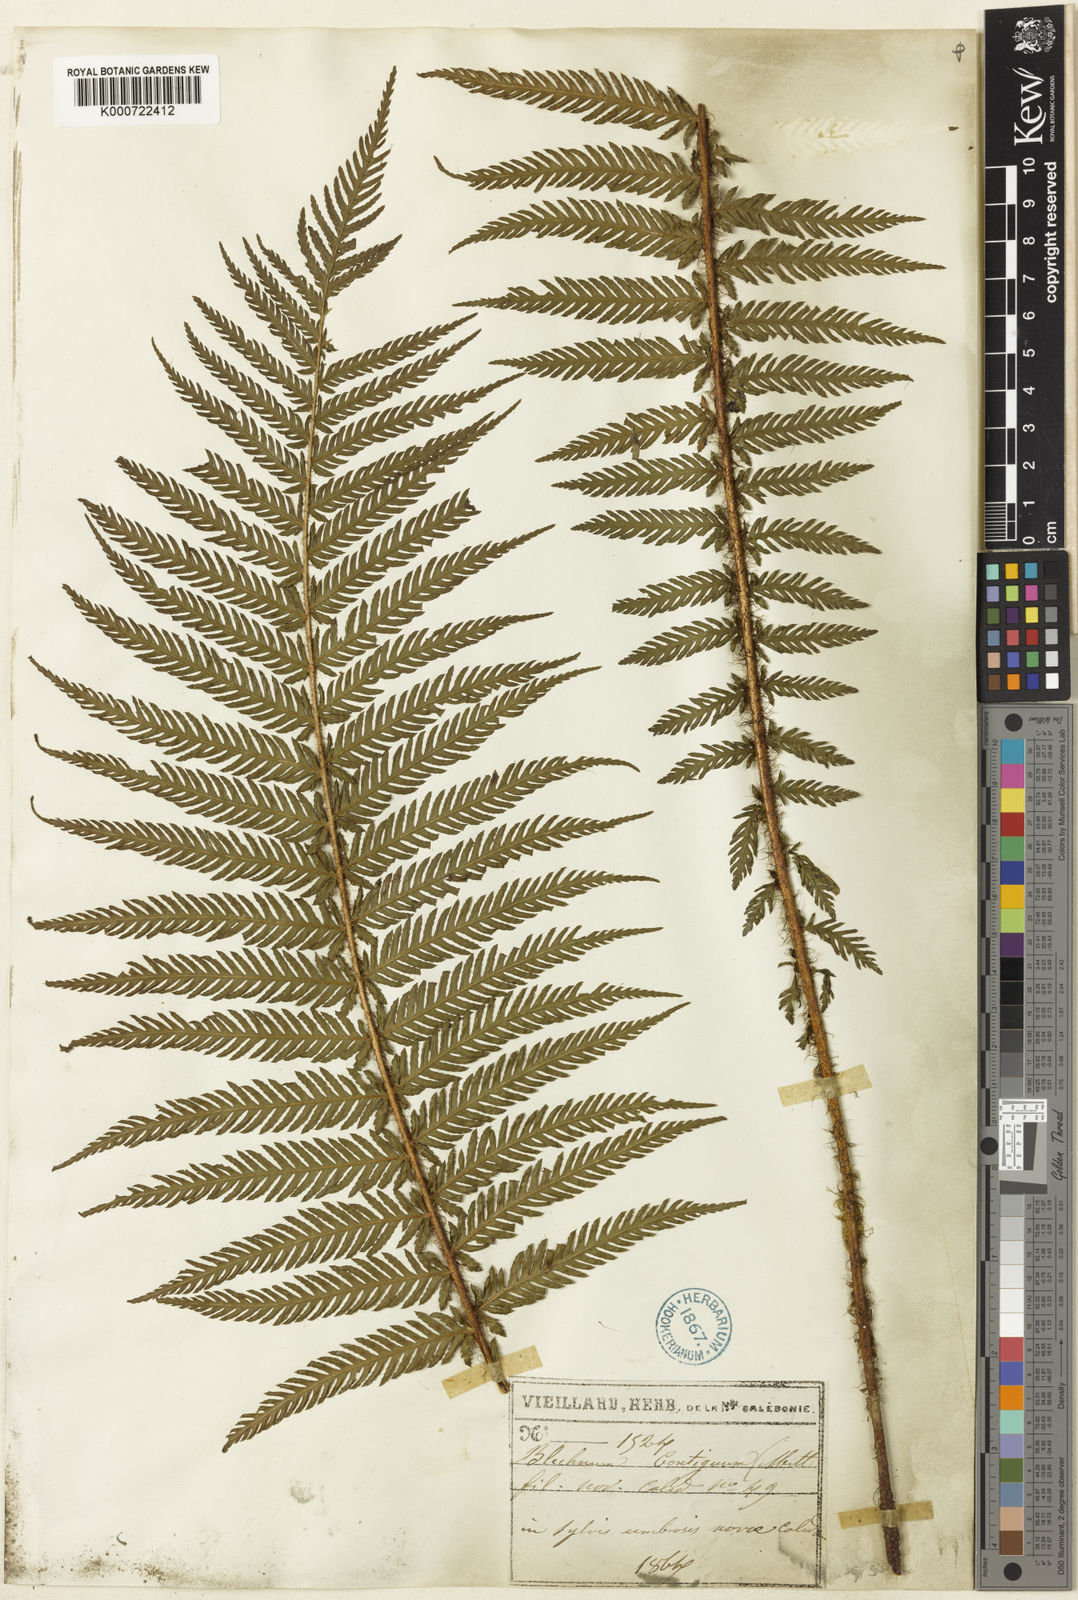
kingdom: Plantae
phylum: Tracheophyta
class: Polypodiopsida
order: Polypodiales
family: Blechnaceae
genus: Diploblechnum
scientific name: Diploblechnum lenormandii
